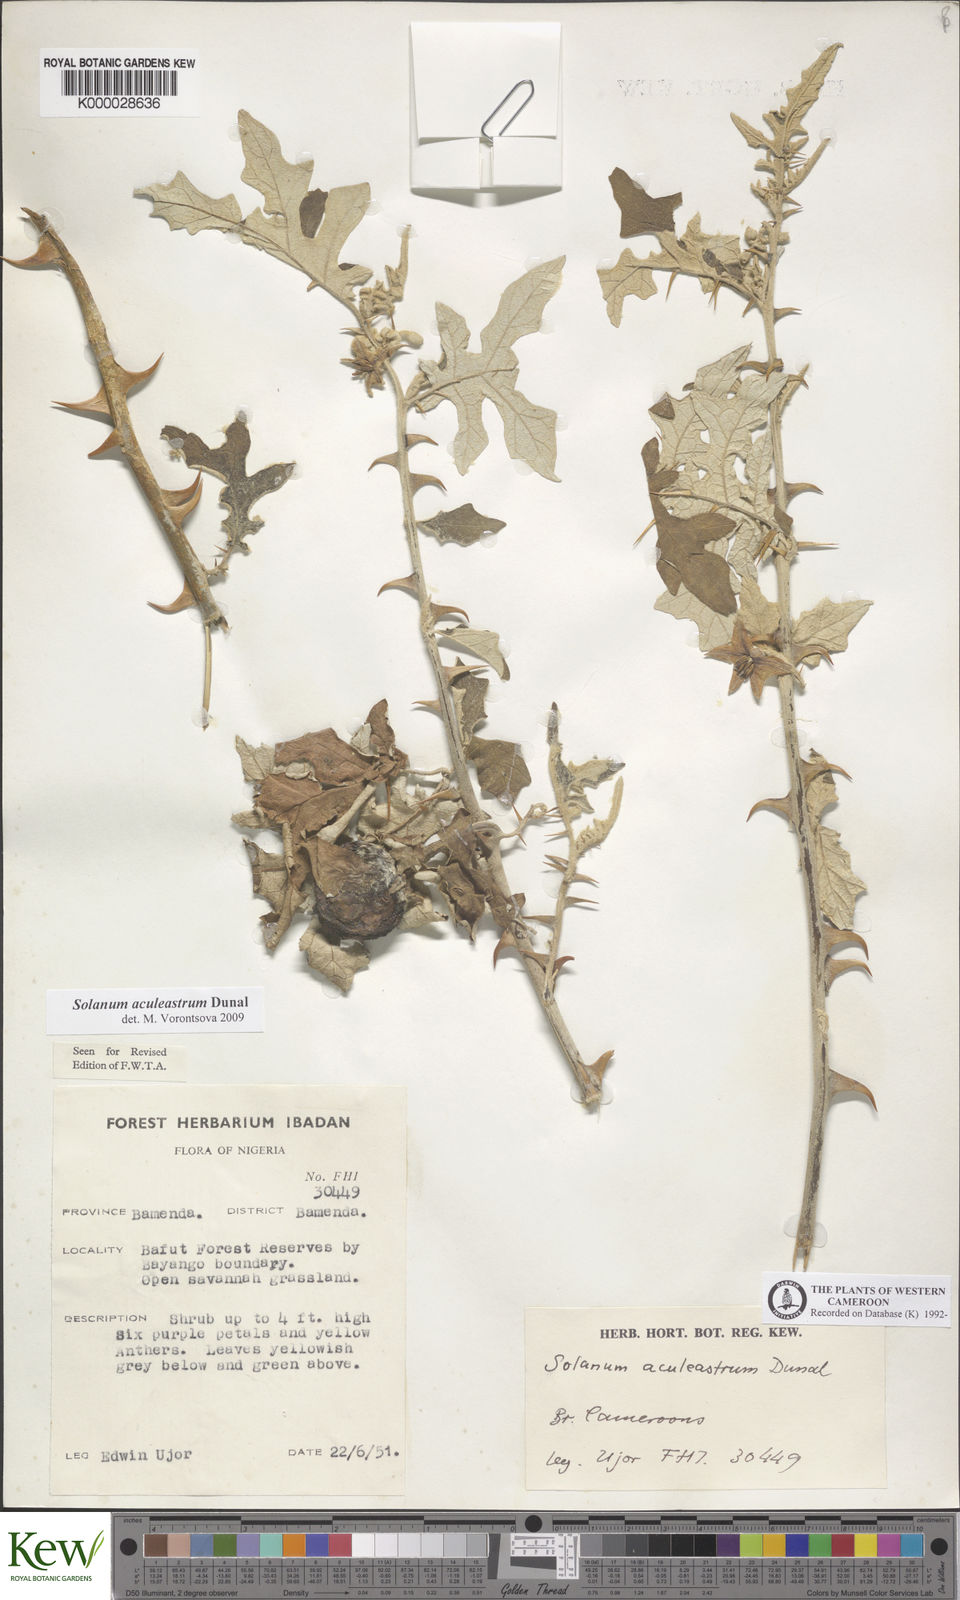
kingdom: Plantae
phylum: Tracheophyta
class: Magnoliopsida
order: Solanales
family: Solanaceae
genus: Solanum
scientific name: Solanum aculeastrum
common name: Goat bitter-apple
